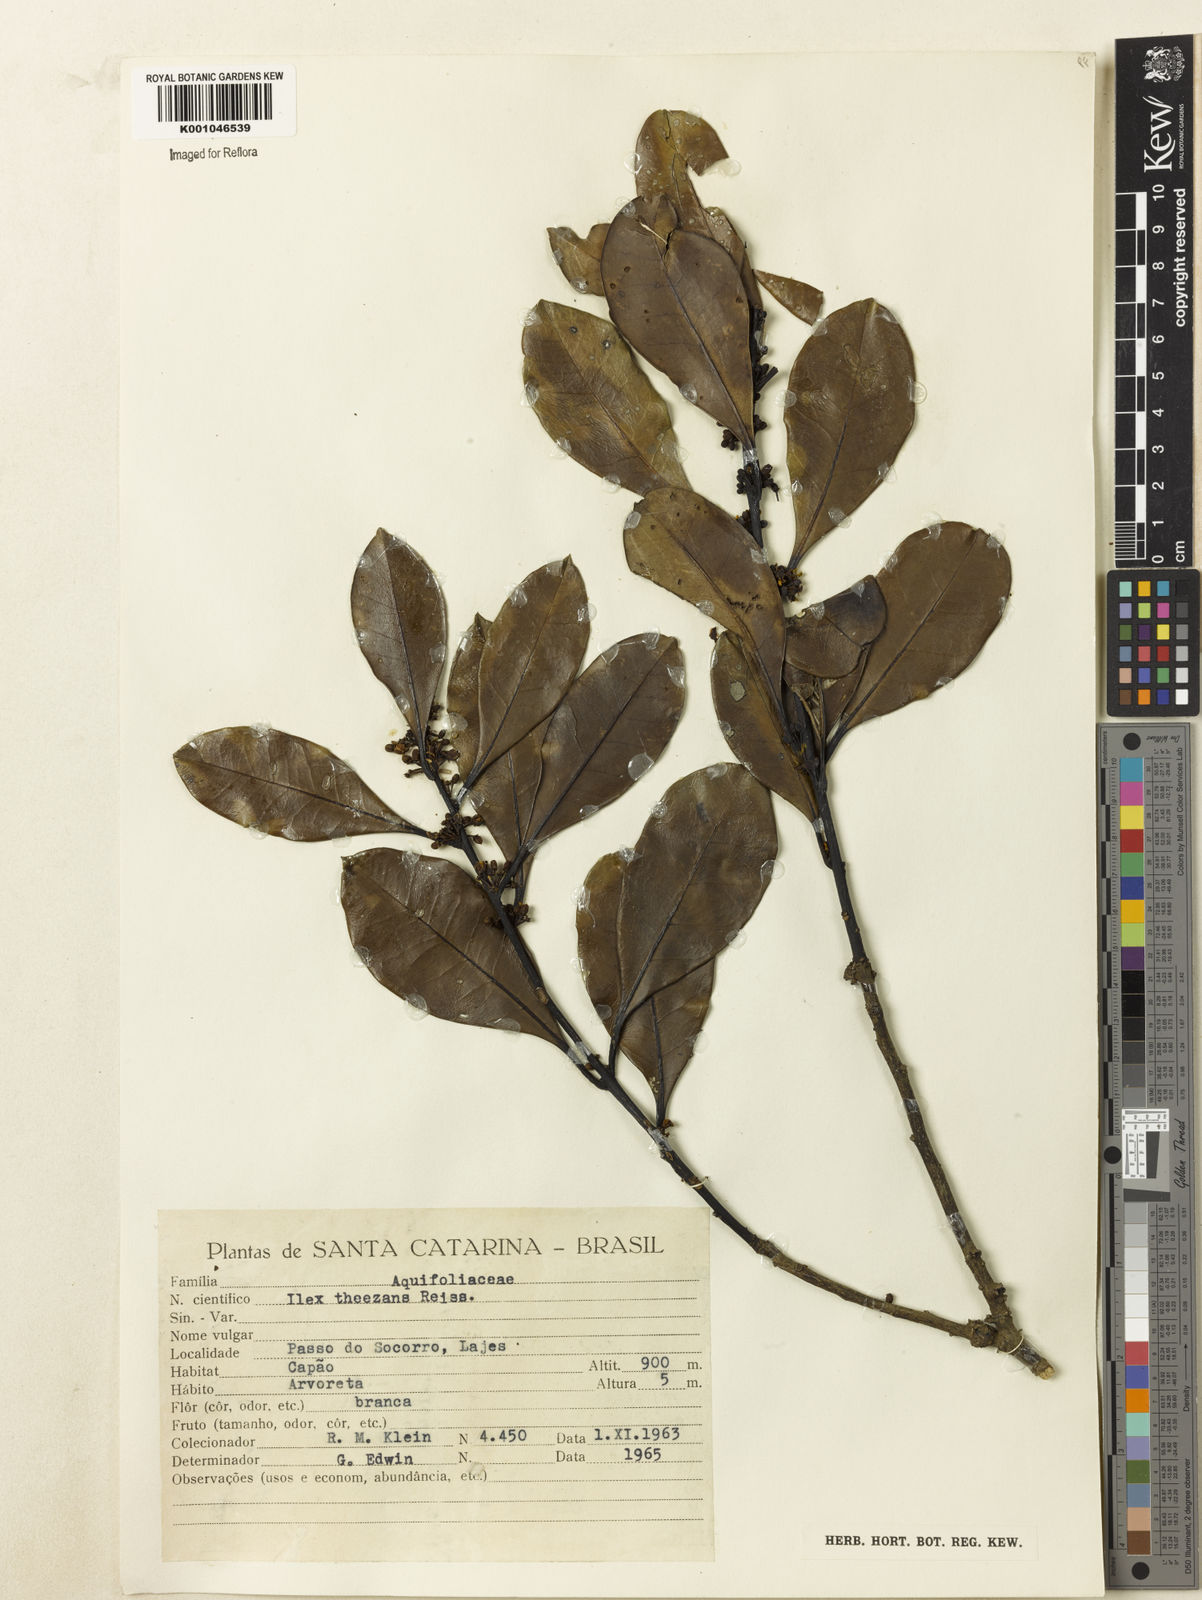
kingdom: Plantae
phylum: Tracheophyta
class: Magnoliopsida
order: Aquifoliales
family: Aquifoliaceae
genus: Ilex
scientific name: Ilex theezans
